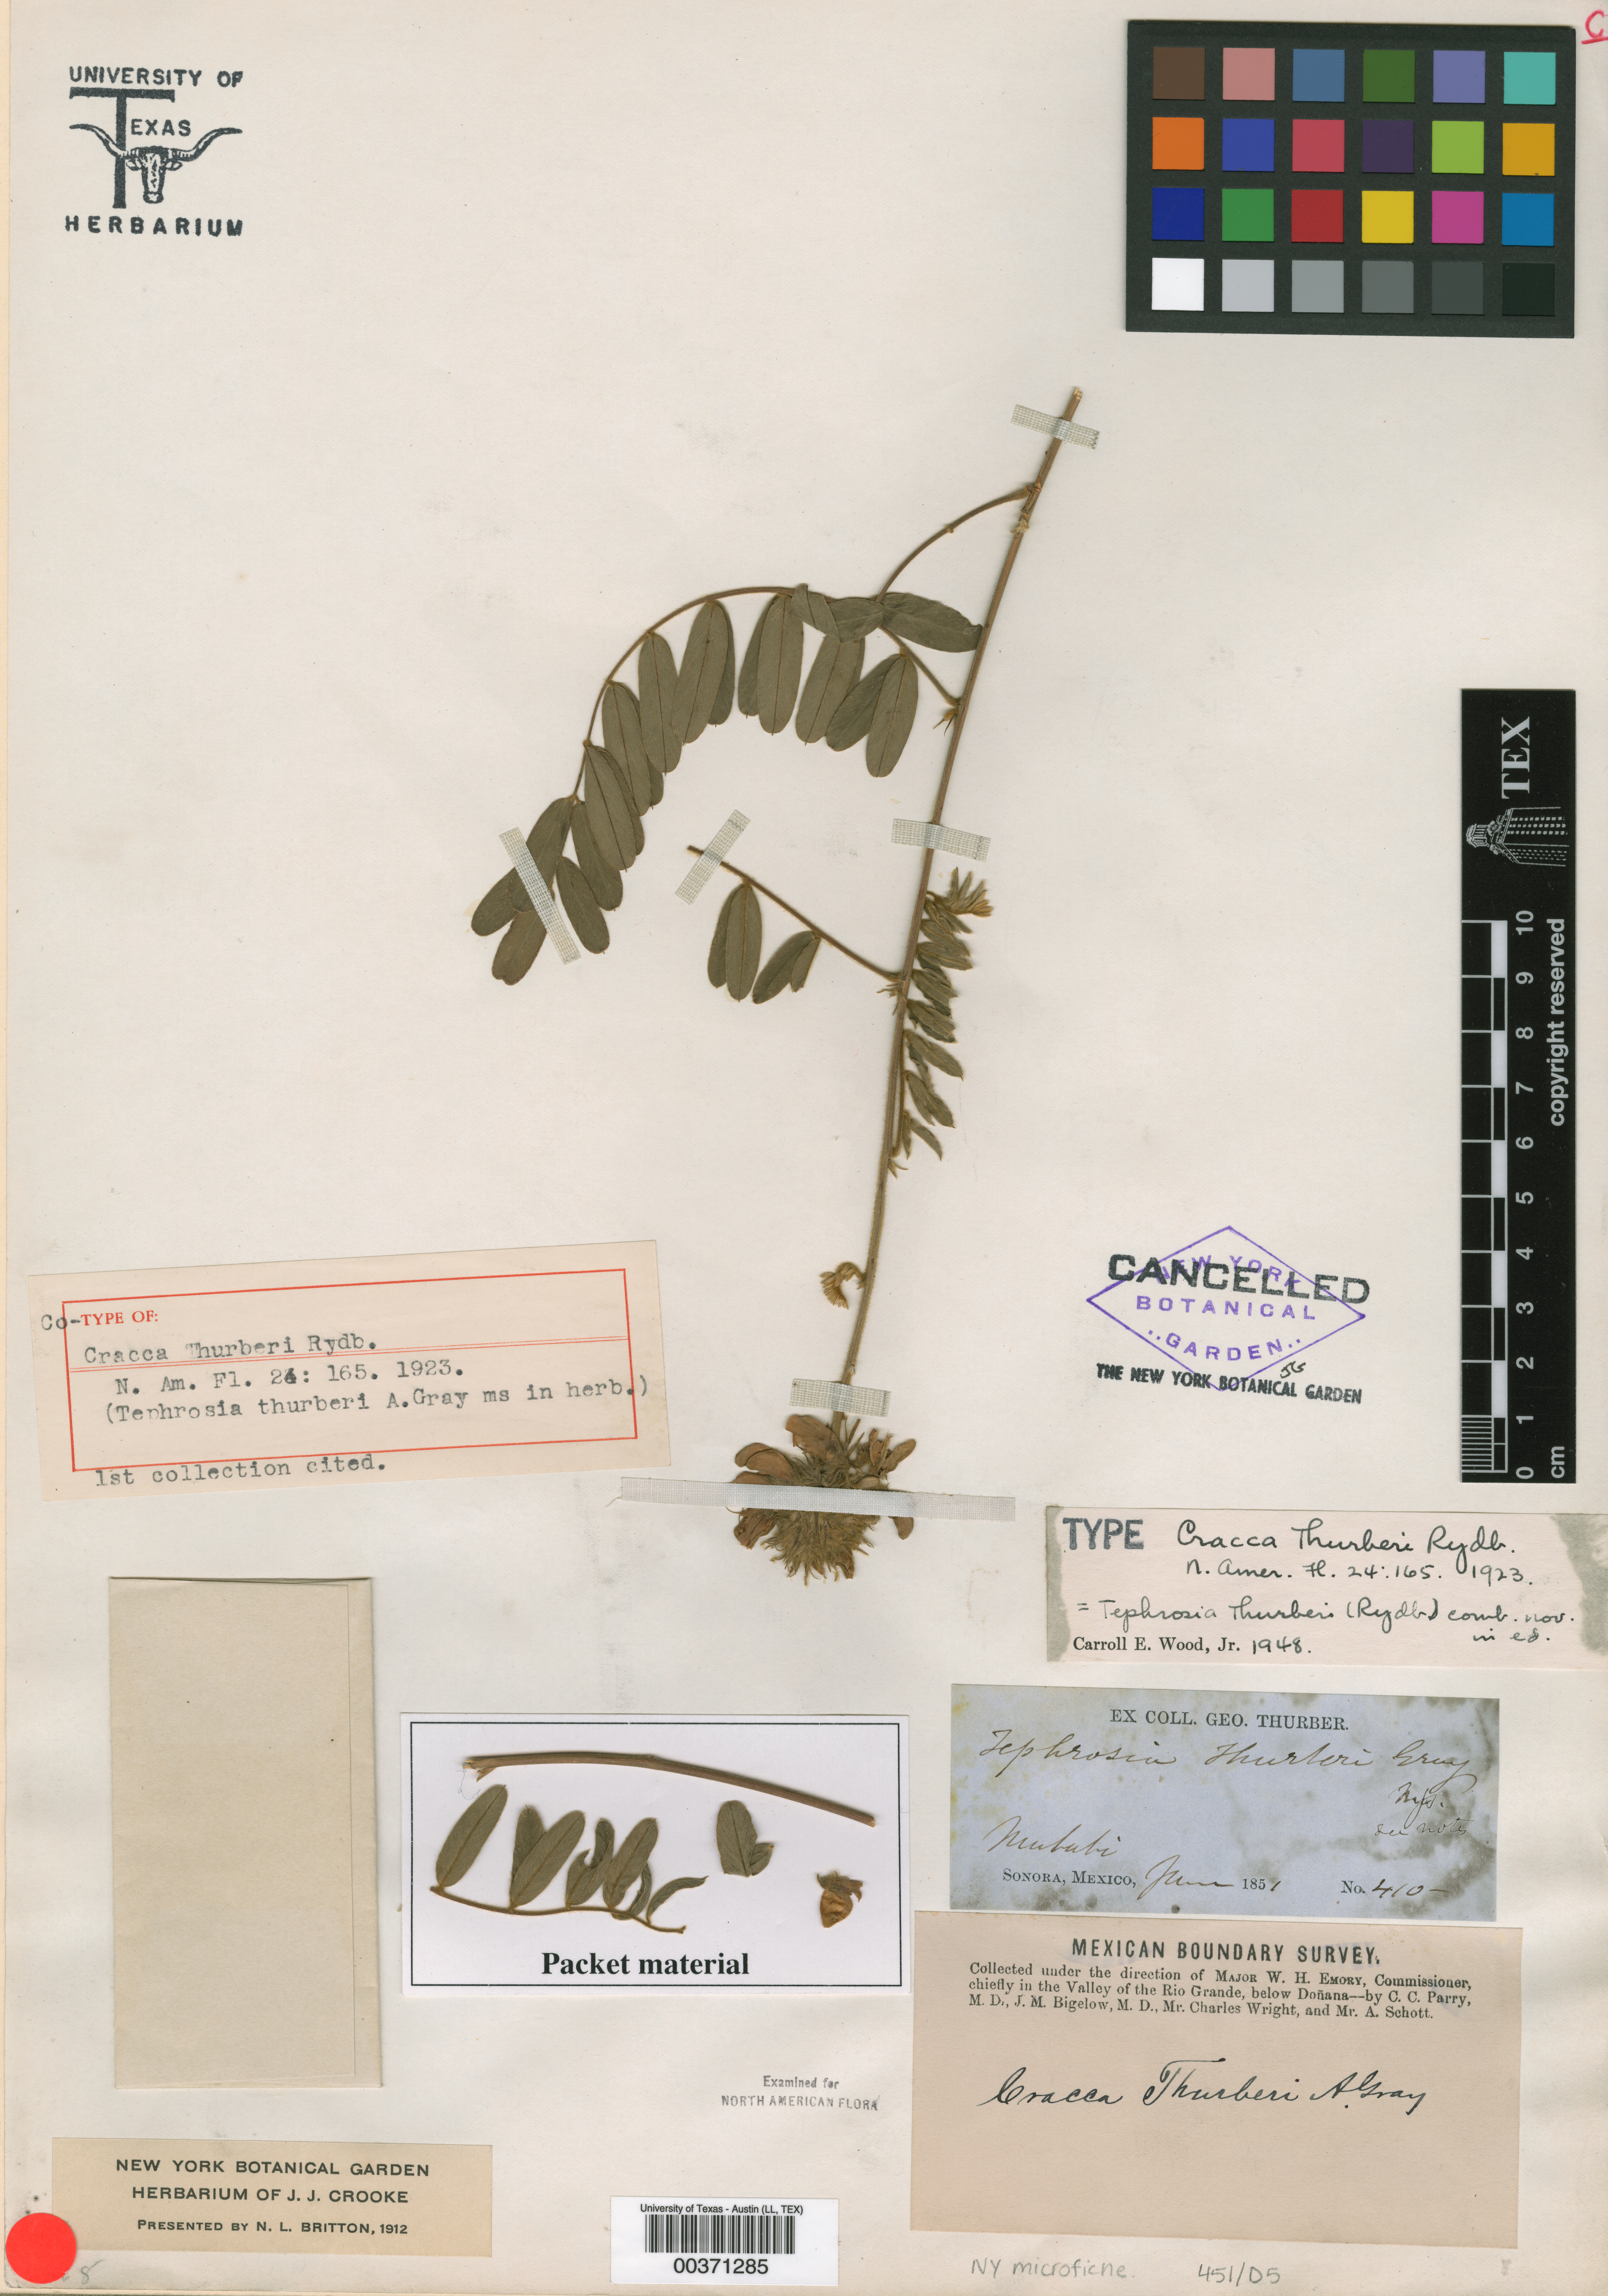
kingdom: Plantae
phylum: Tracheophyta
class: Magnoliopsida
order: Fabales
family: Fabaceae
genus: Tephrosia
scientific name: Tephrosia thurberi
